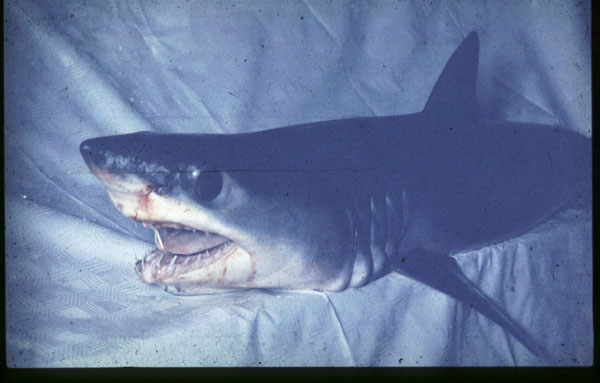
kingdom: Animalia
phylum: Chordata
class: Elasmobranchii
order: Lamniformes
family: Lamnidae
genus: Isurus
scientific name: Isurus oxyrinchus
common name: Shortfin mako
